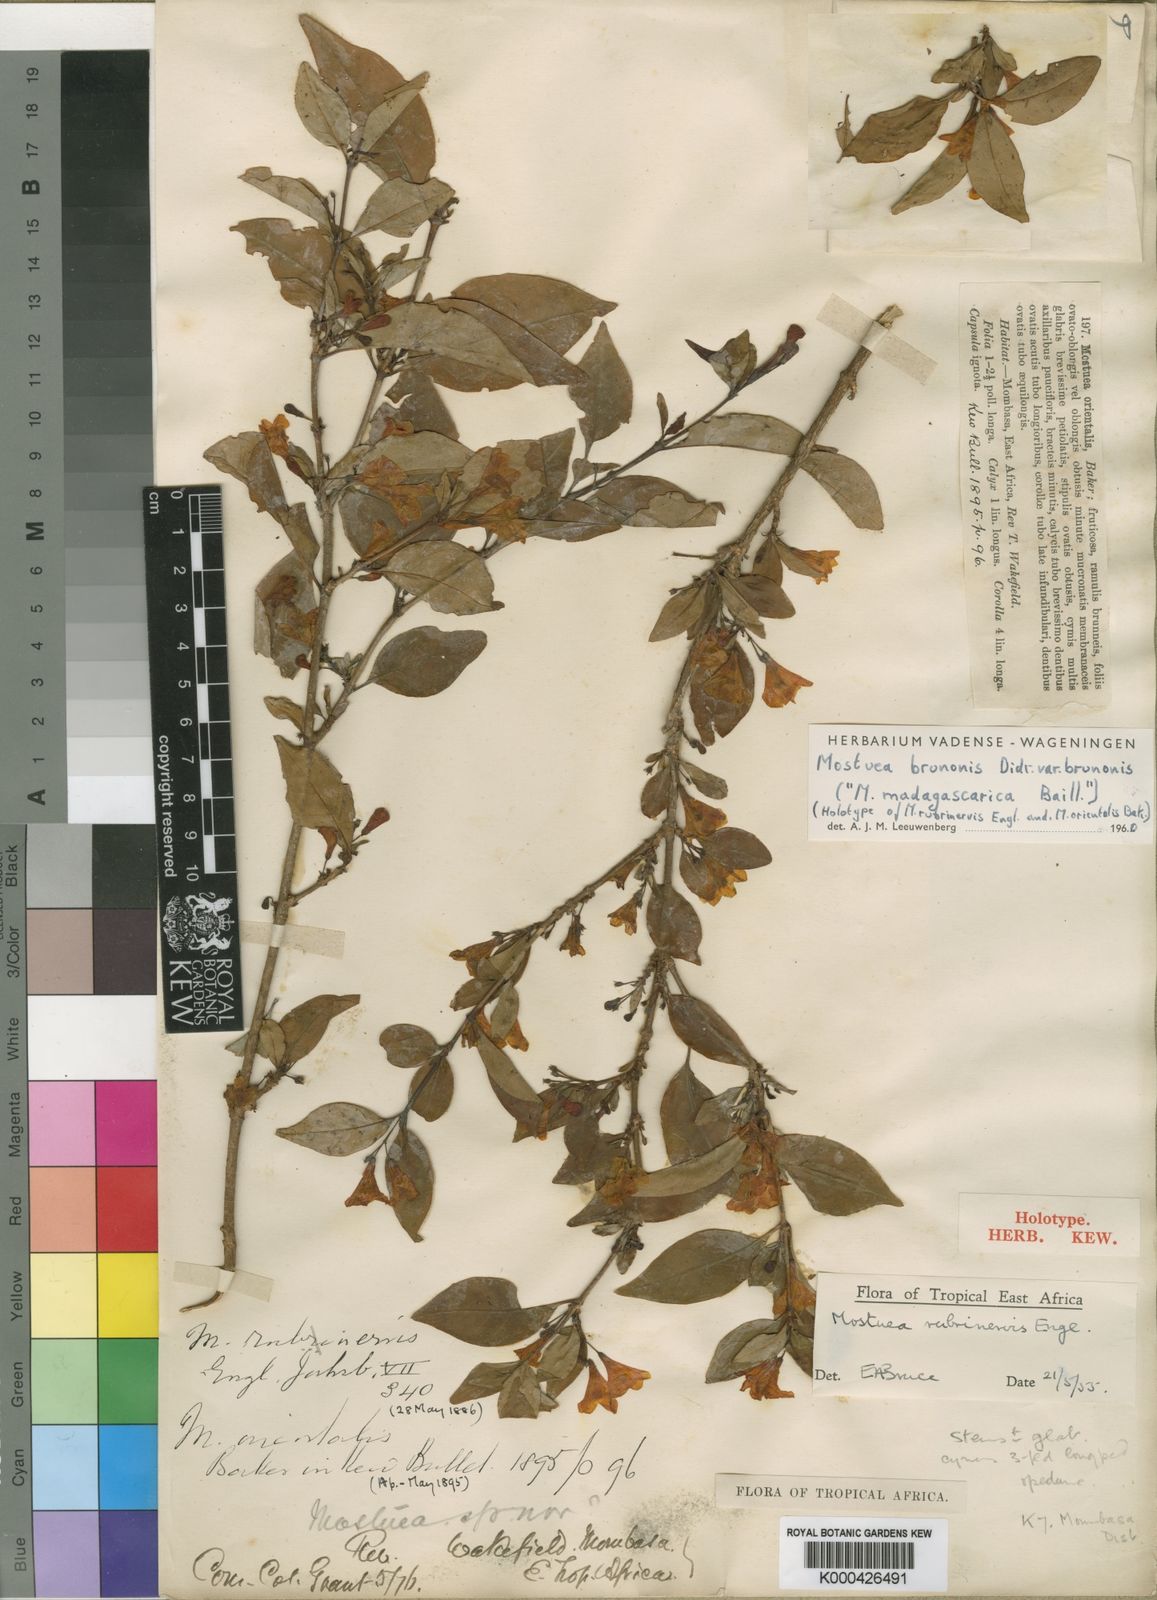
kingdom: Plantae
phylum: Tracheophyta
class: Magnoliopsida
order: Gentianales
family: Gelsemiaceae
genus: Mostuea
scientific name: Mostuea rubrinervis
